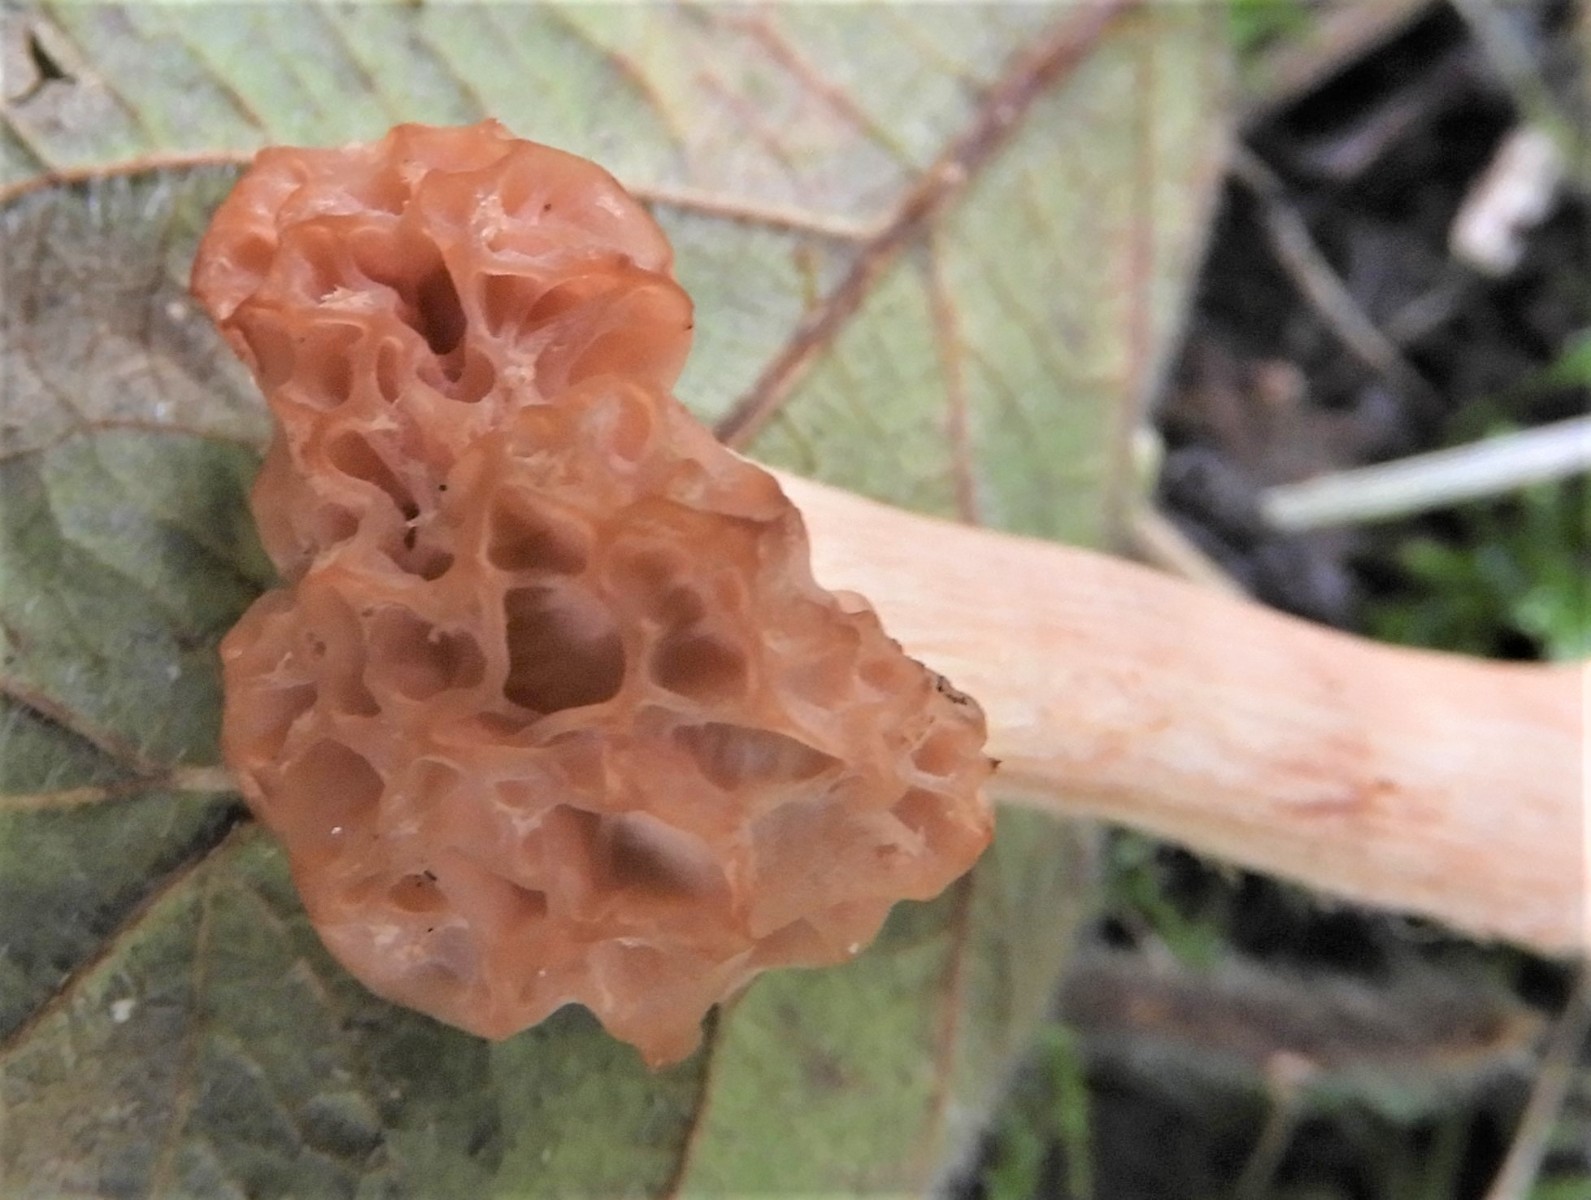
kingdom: Fungi
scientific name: Fungi
